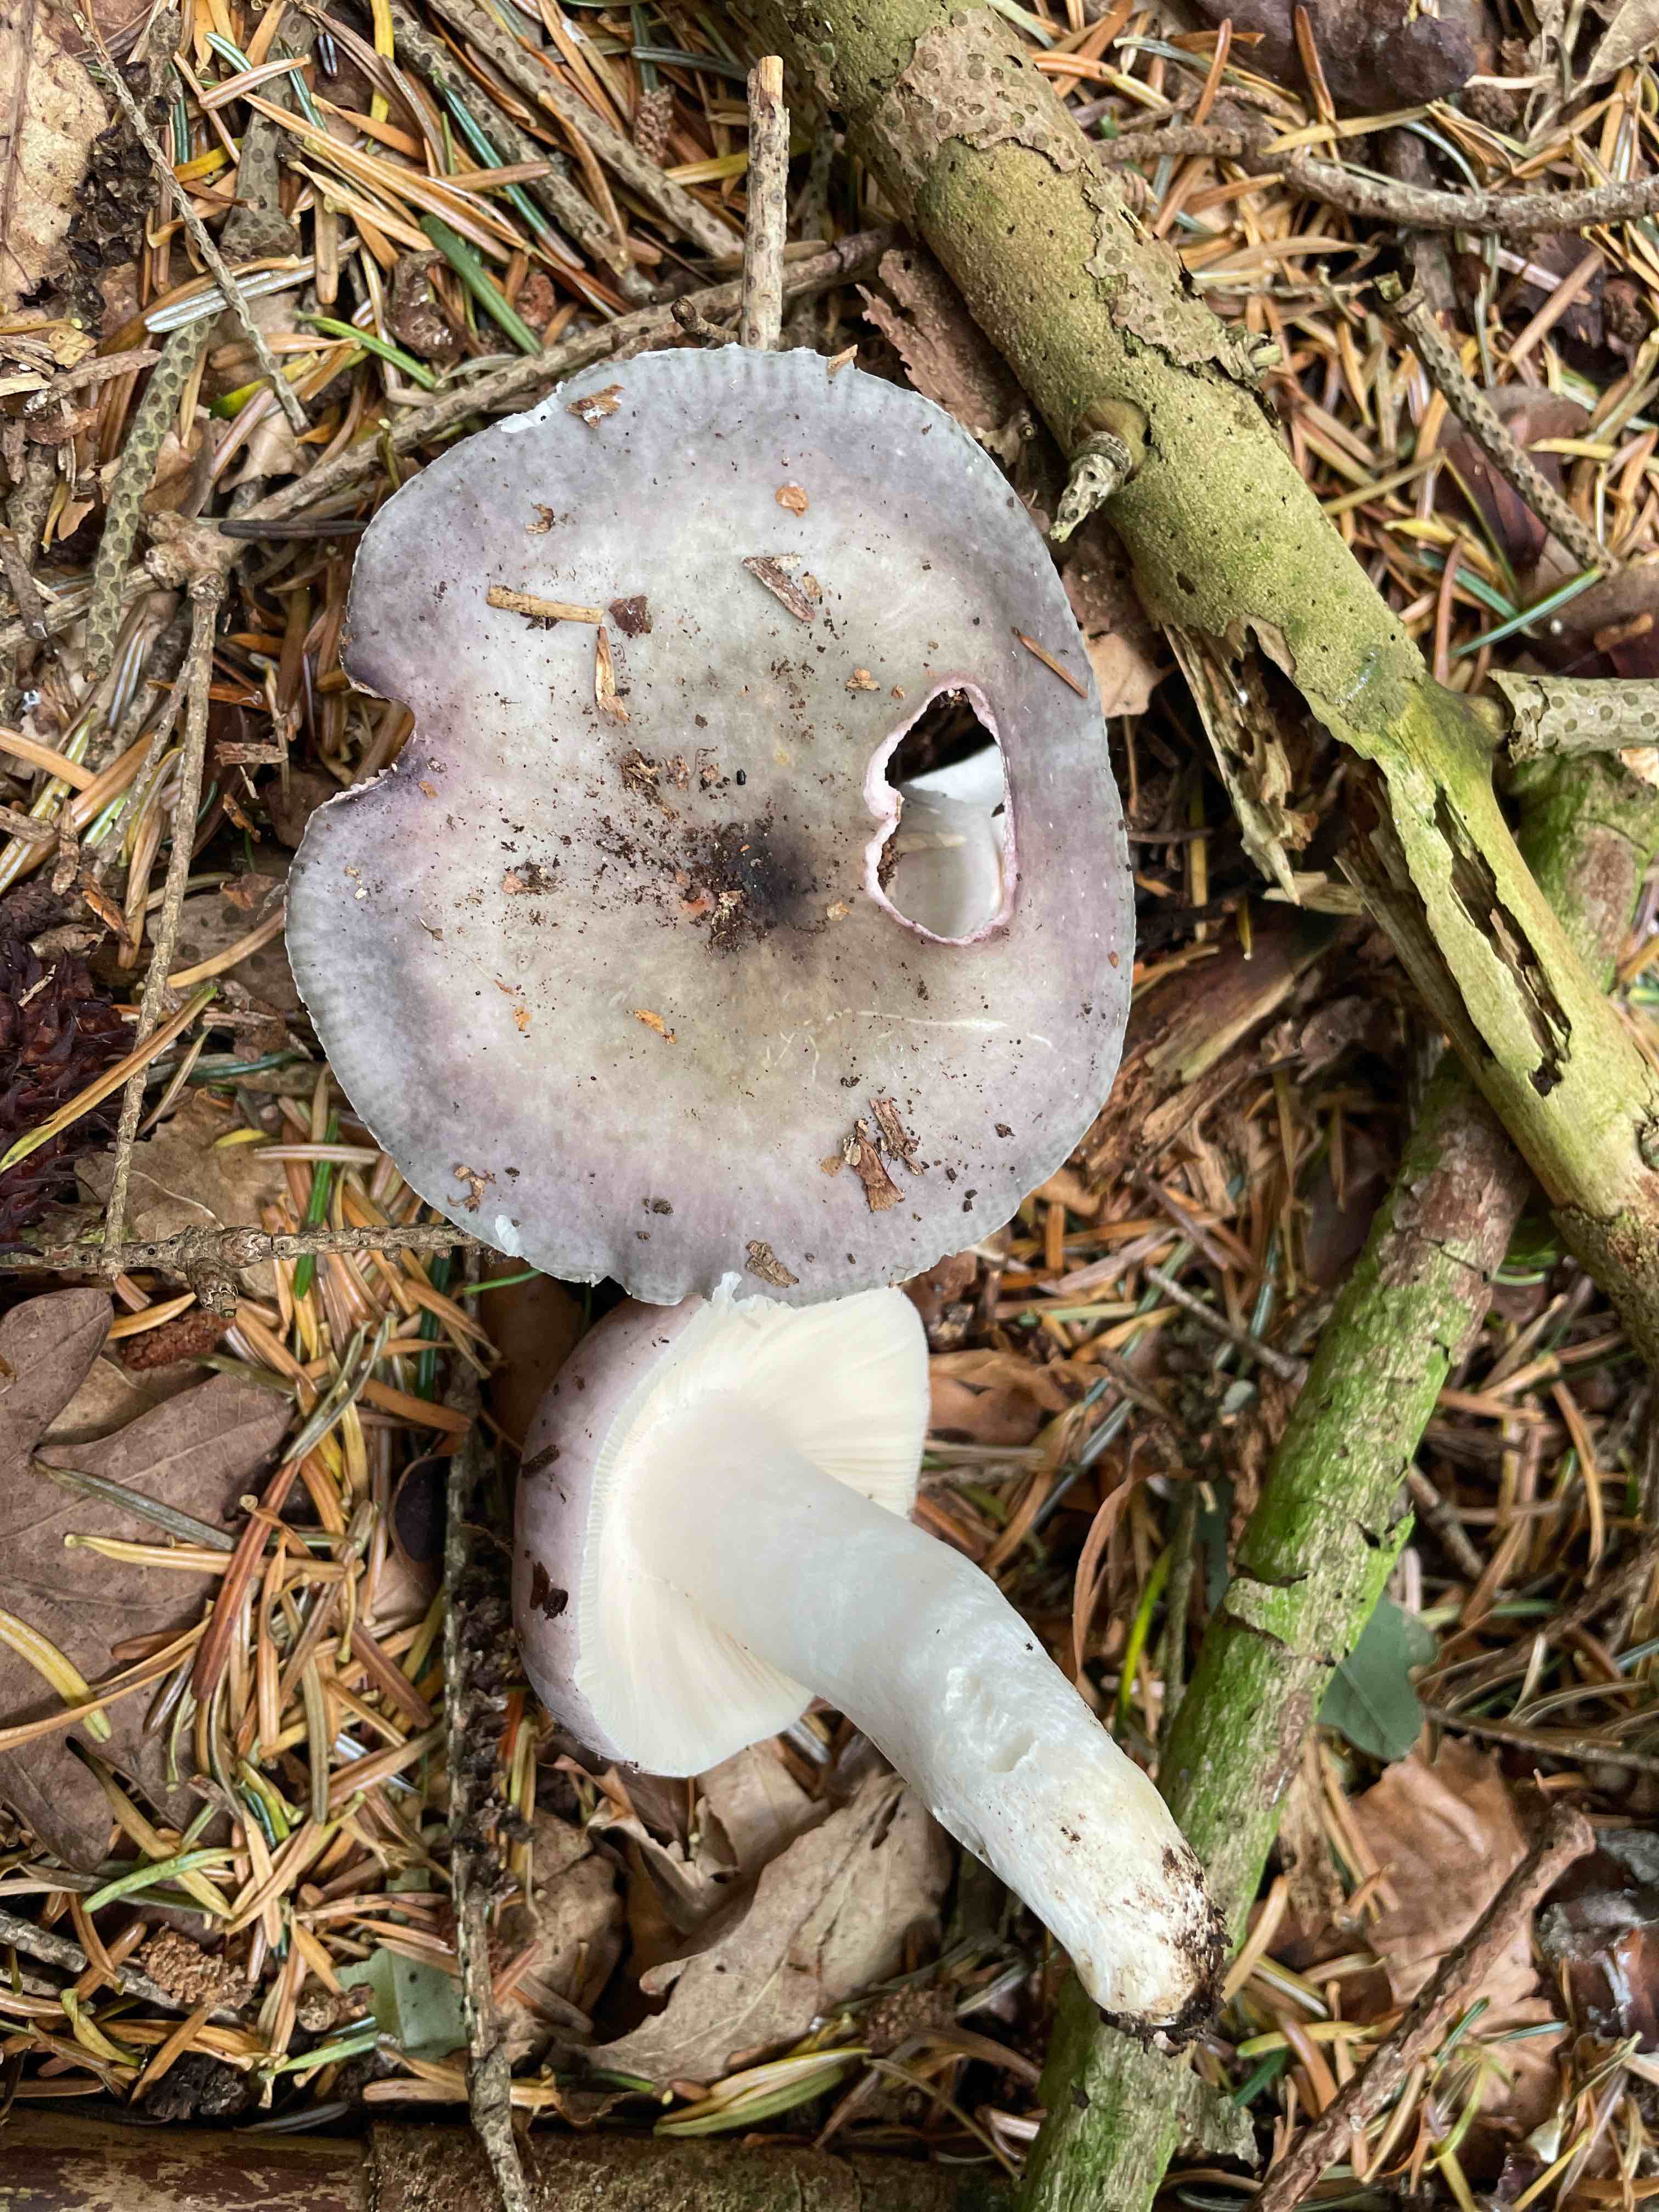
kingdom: Fungi
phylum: Basidiomycota
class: Agaricomycetes
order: Russulales
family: Russulaceae
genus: Russula
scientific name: Russula
